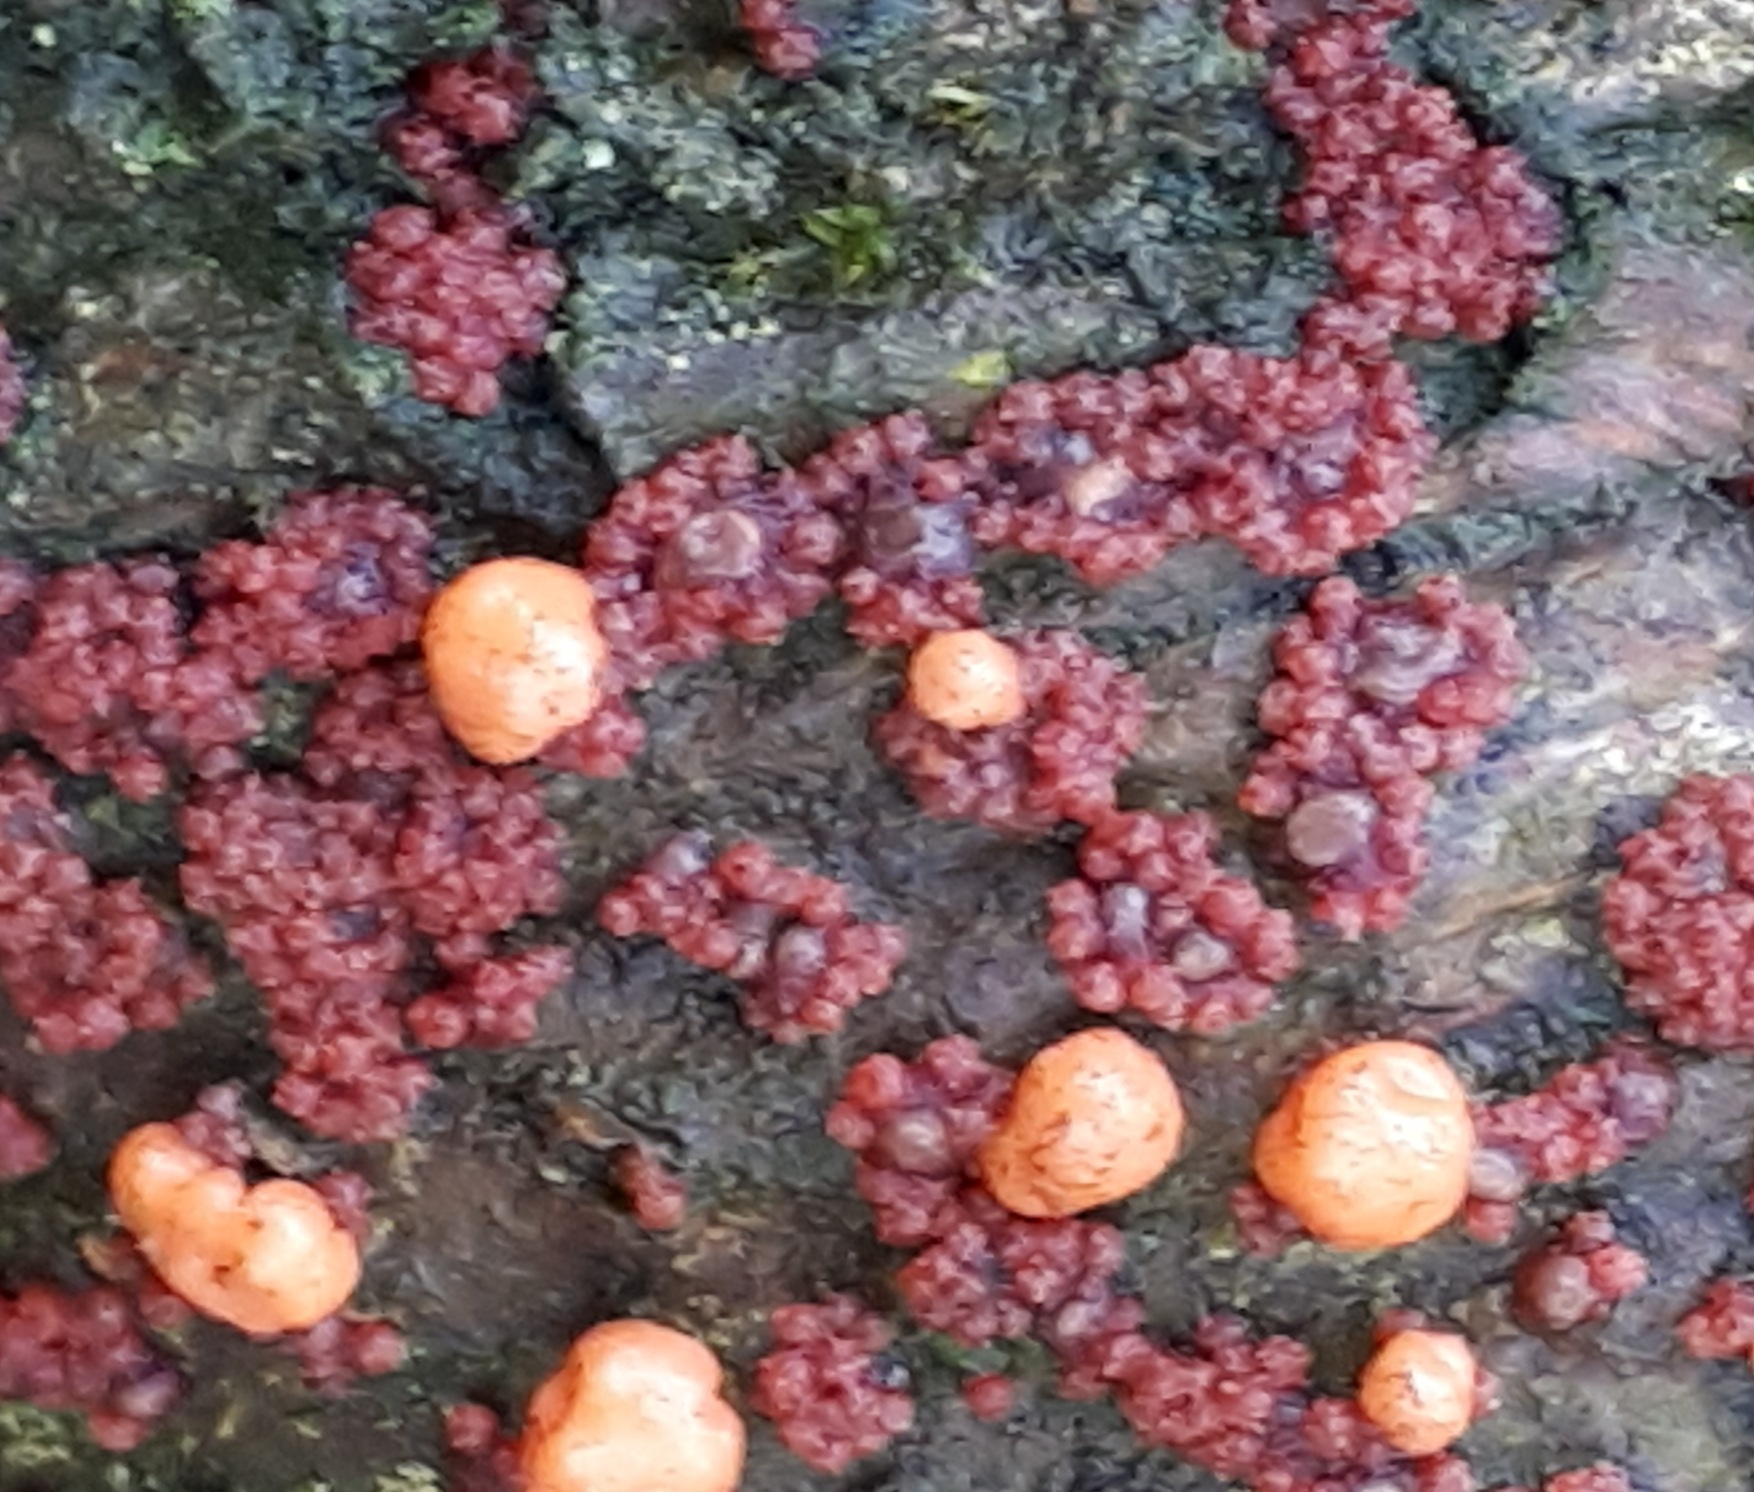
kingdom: Fungi
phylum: Ascomycota
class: Sordariomycetes
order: Hypocreales
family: Nectriaceae
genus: Nectria
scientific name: Nectria cinnabarina
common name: almindelig cinnobersvamp
